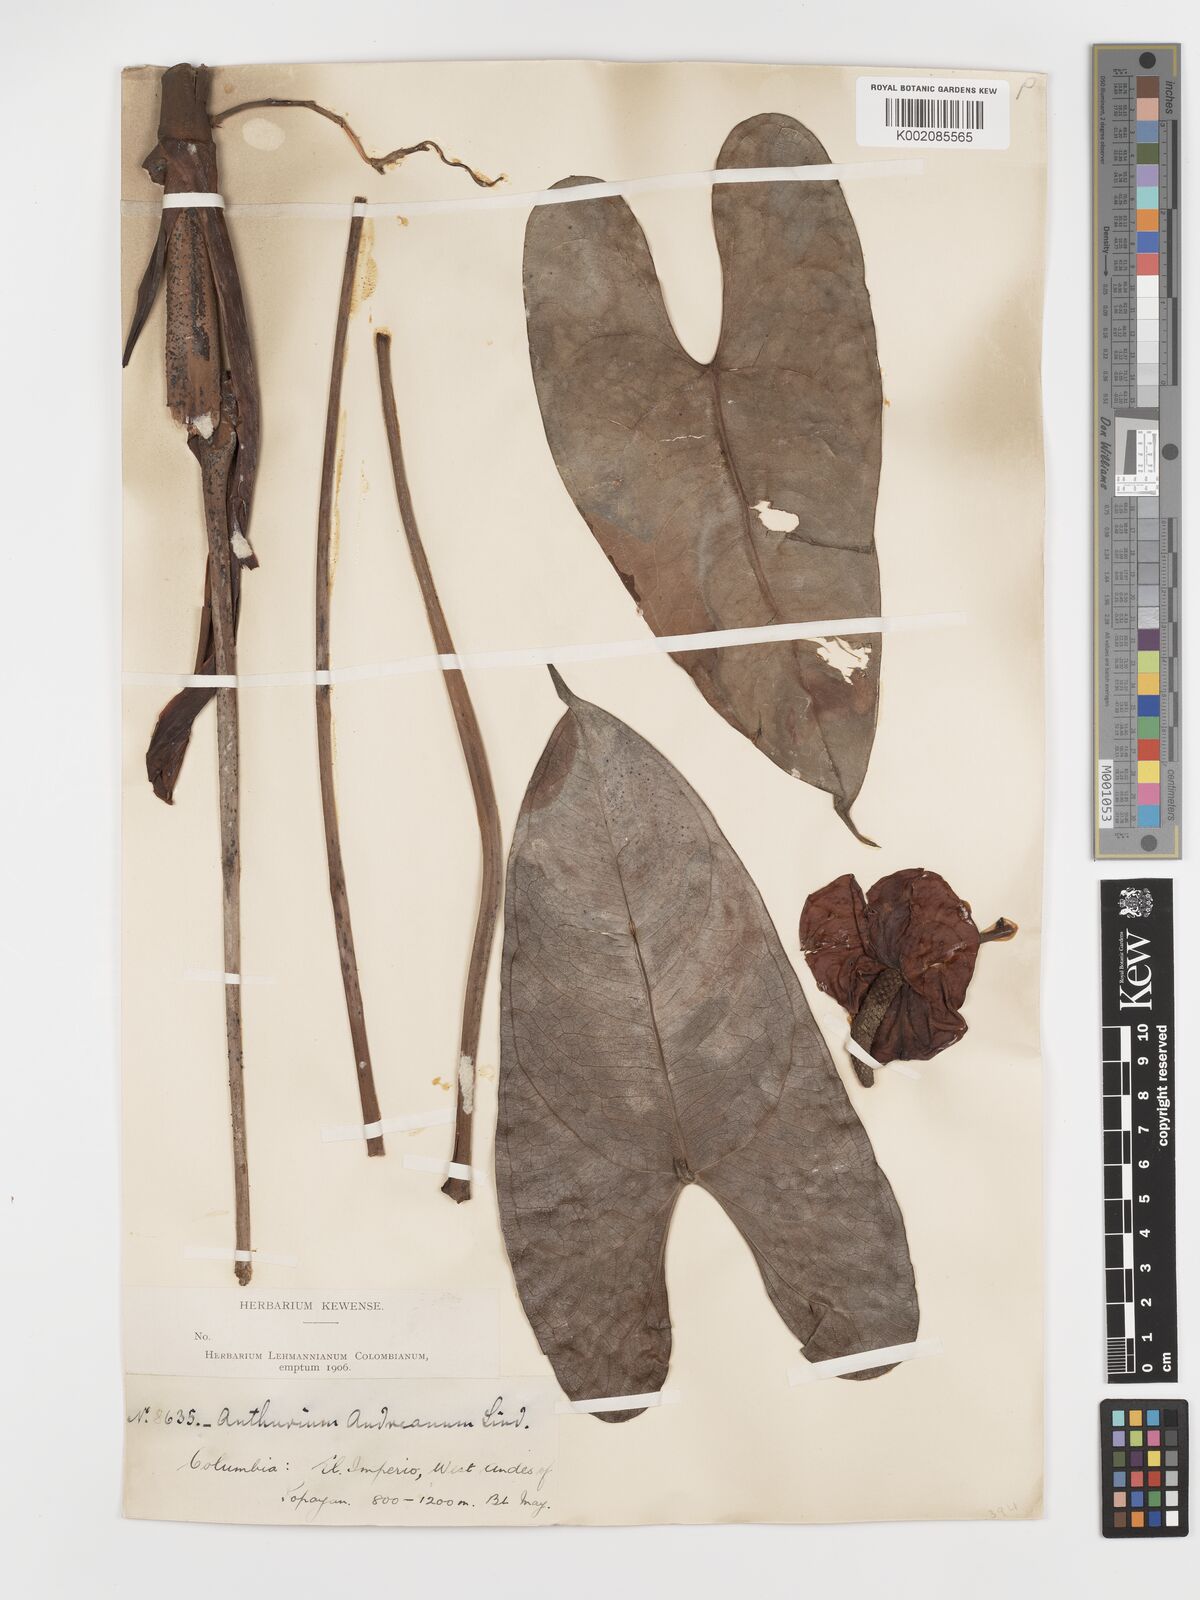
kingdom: Plantae
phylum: Tracheophyta
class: Liliopsida
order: Alismatales
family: Araceae
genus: Anthurium
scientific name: Anthurium andraeanum
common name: Flamingo-flower
